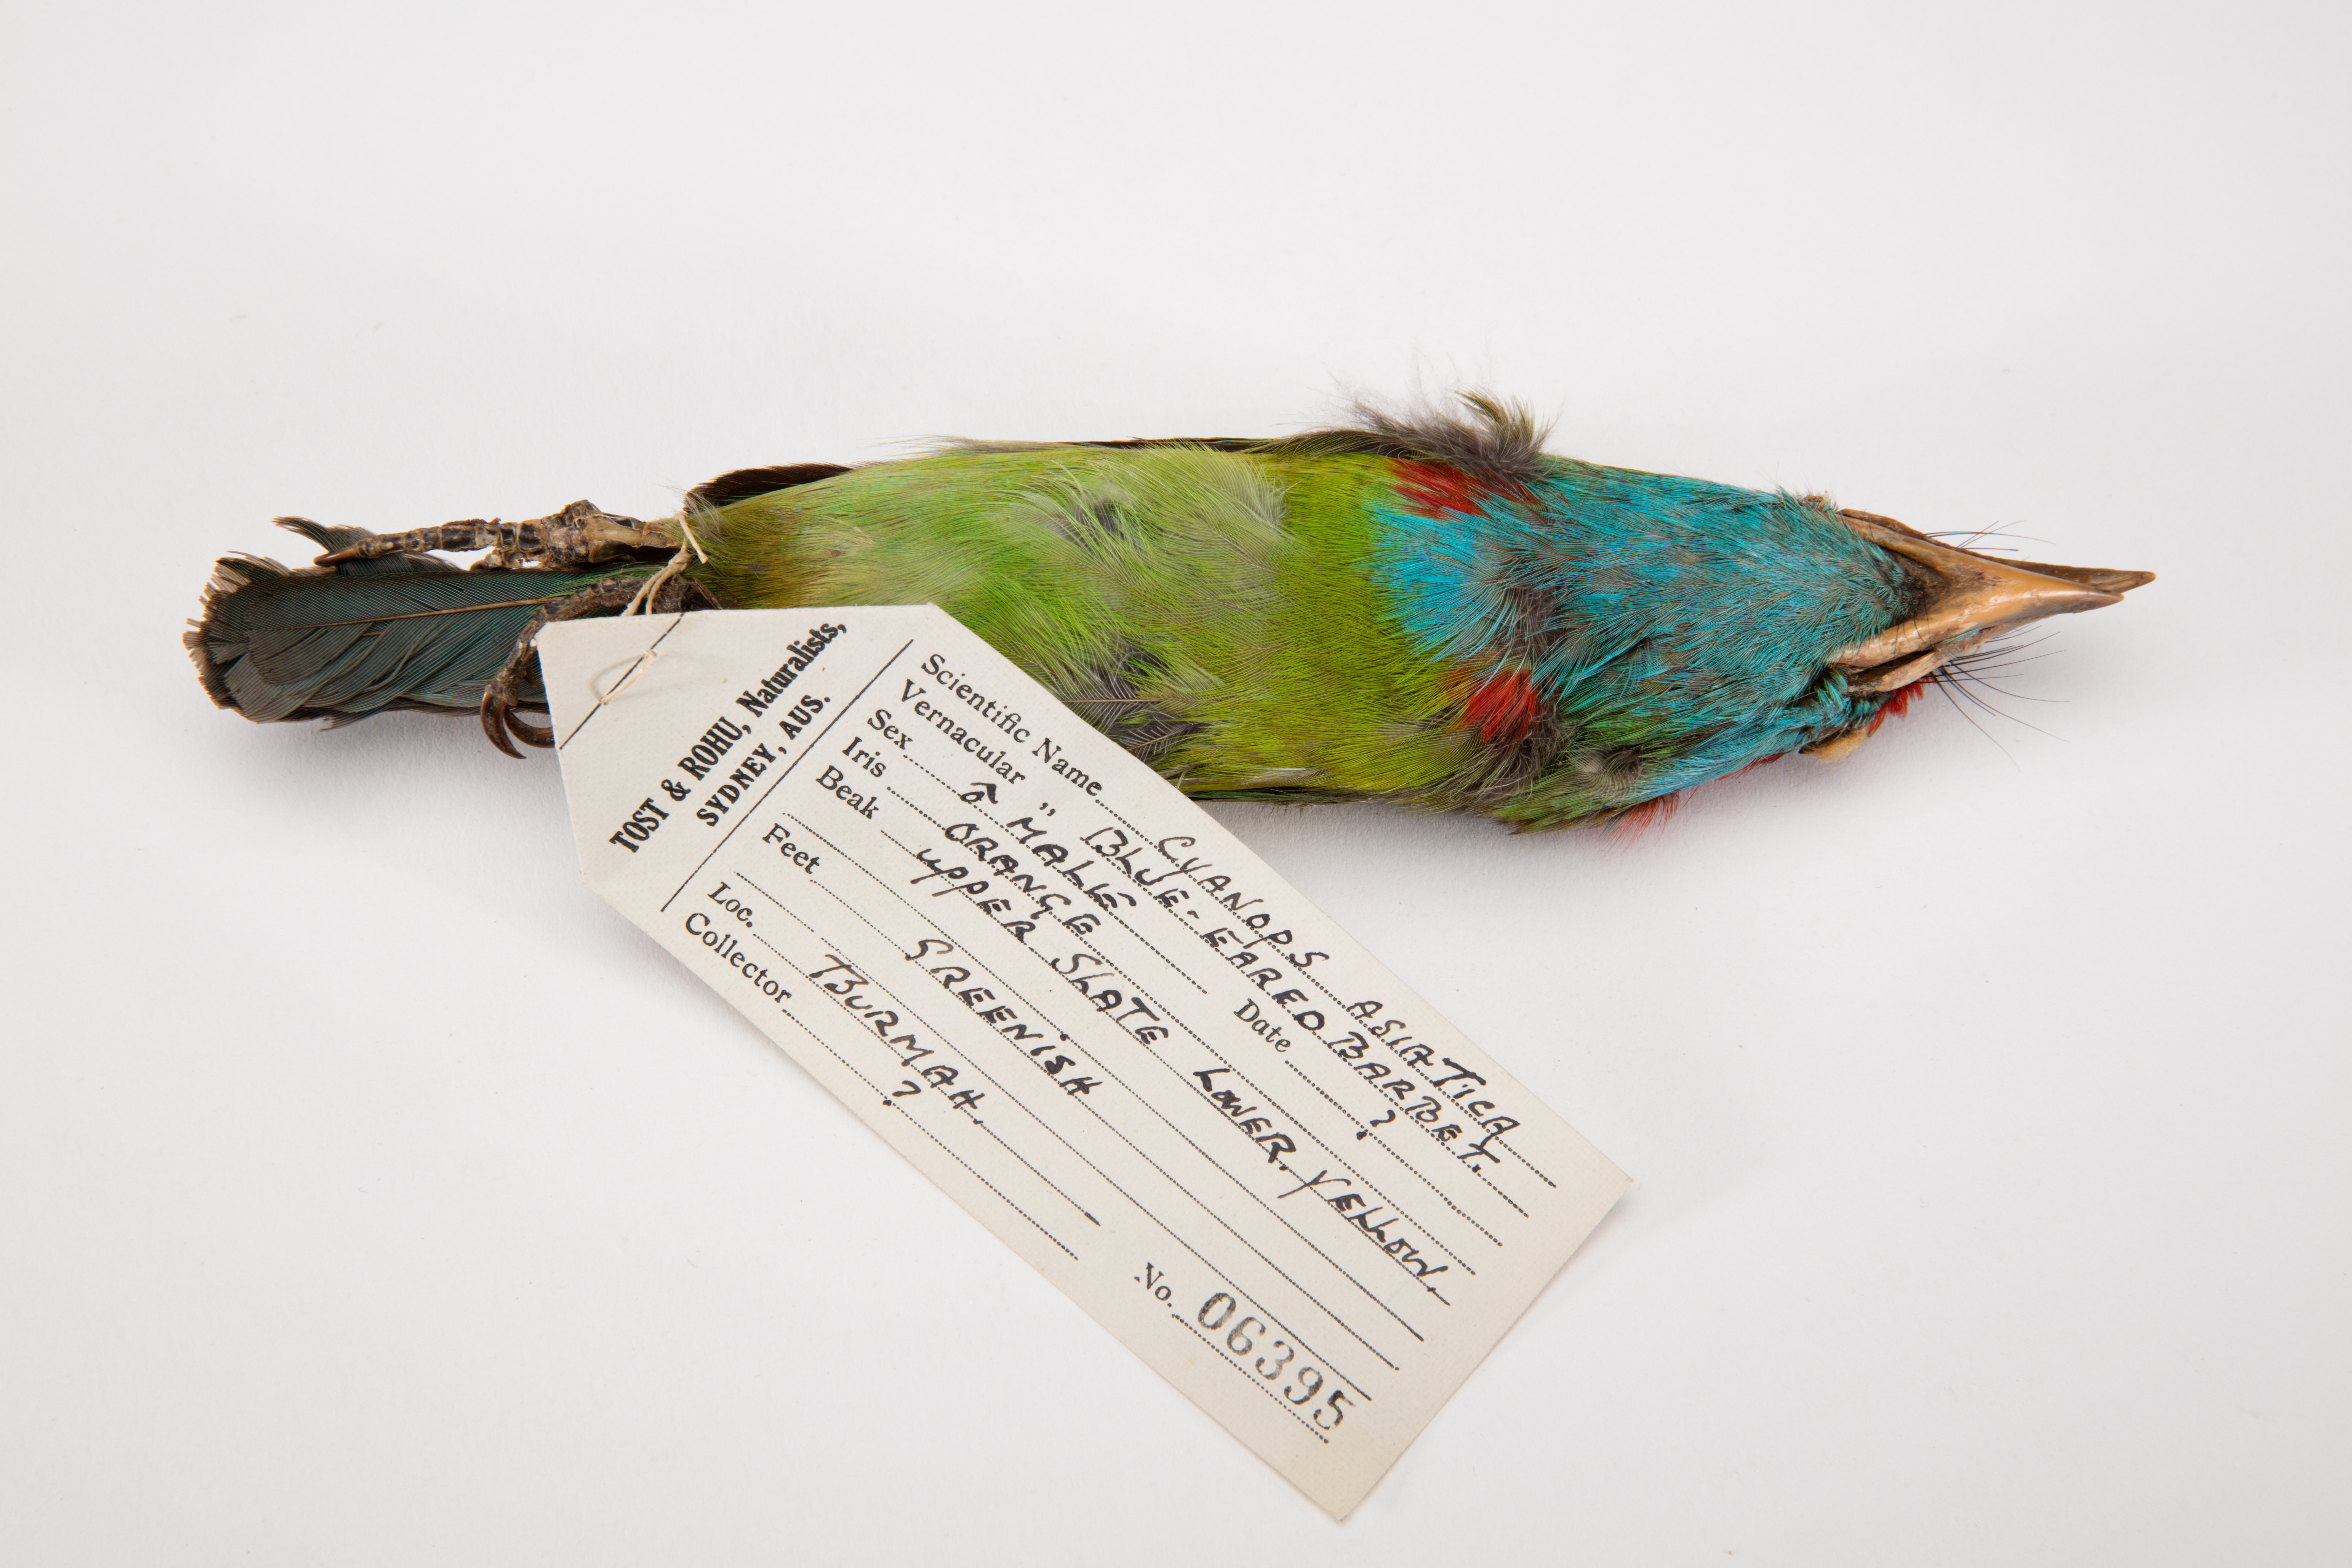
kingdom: Animalia
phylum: Chordata
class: Aves
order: Piciformes
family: Megalaimidae
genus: Psilopogon
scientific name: Psilopogon australis
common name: Yellow-eared barbet
